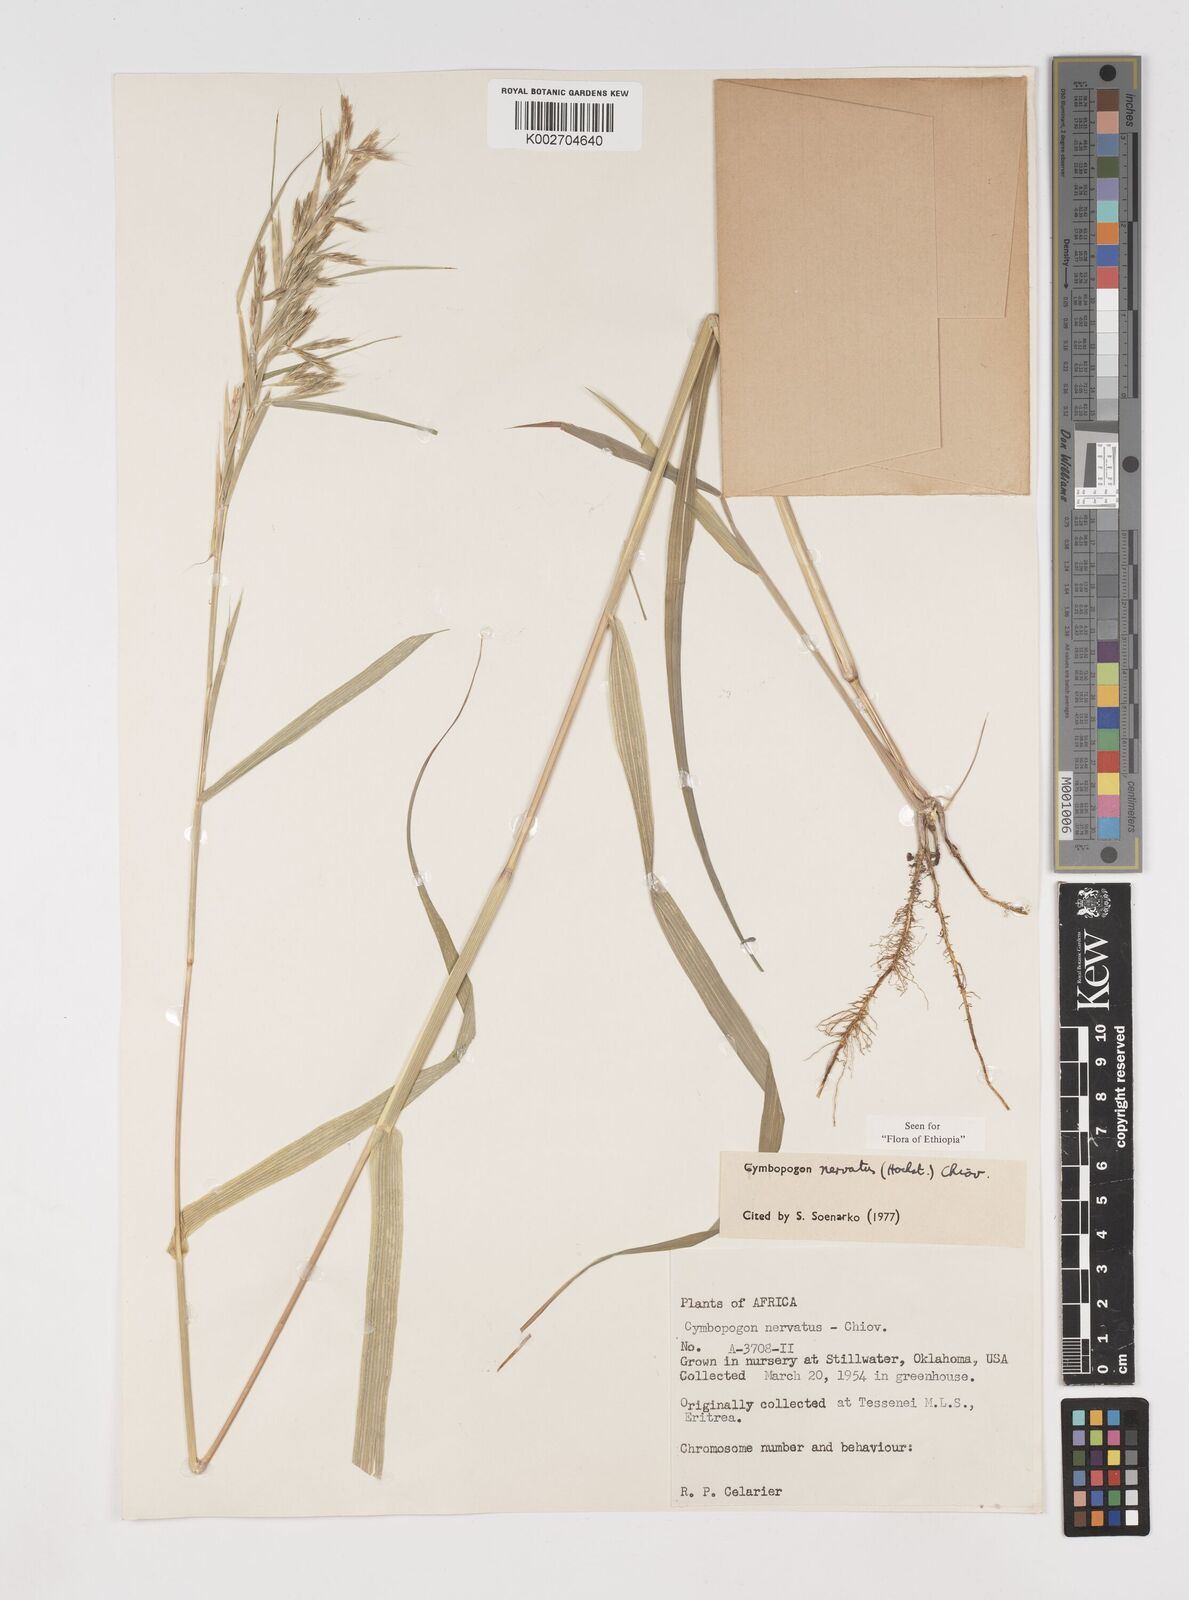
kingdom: Plantae
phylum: Tracheophyta
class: Liliopsida
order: Poales
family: Poaceae
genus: Cymbopogon
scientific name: Cymbopogon nervatus
